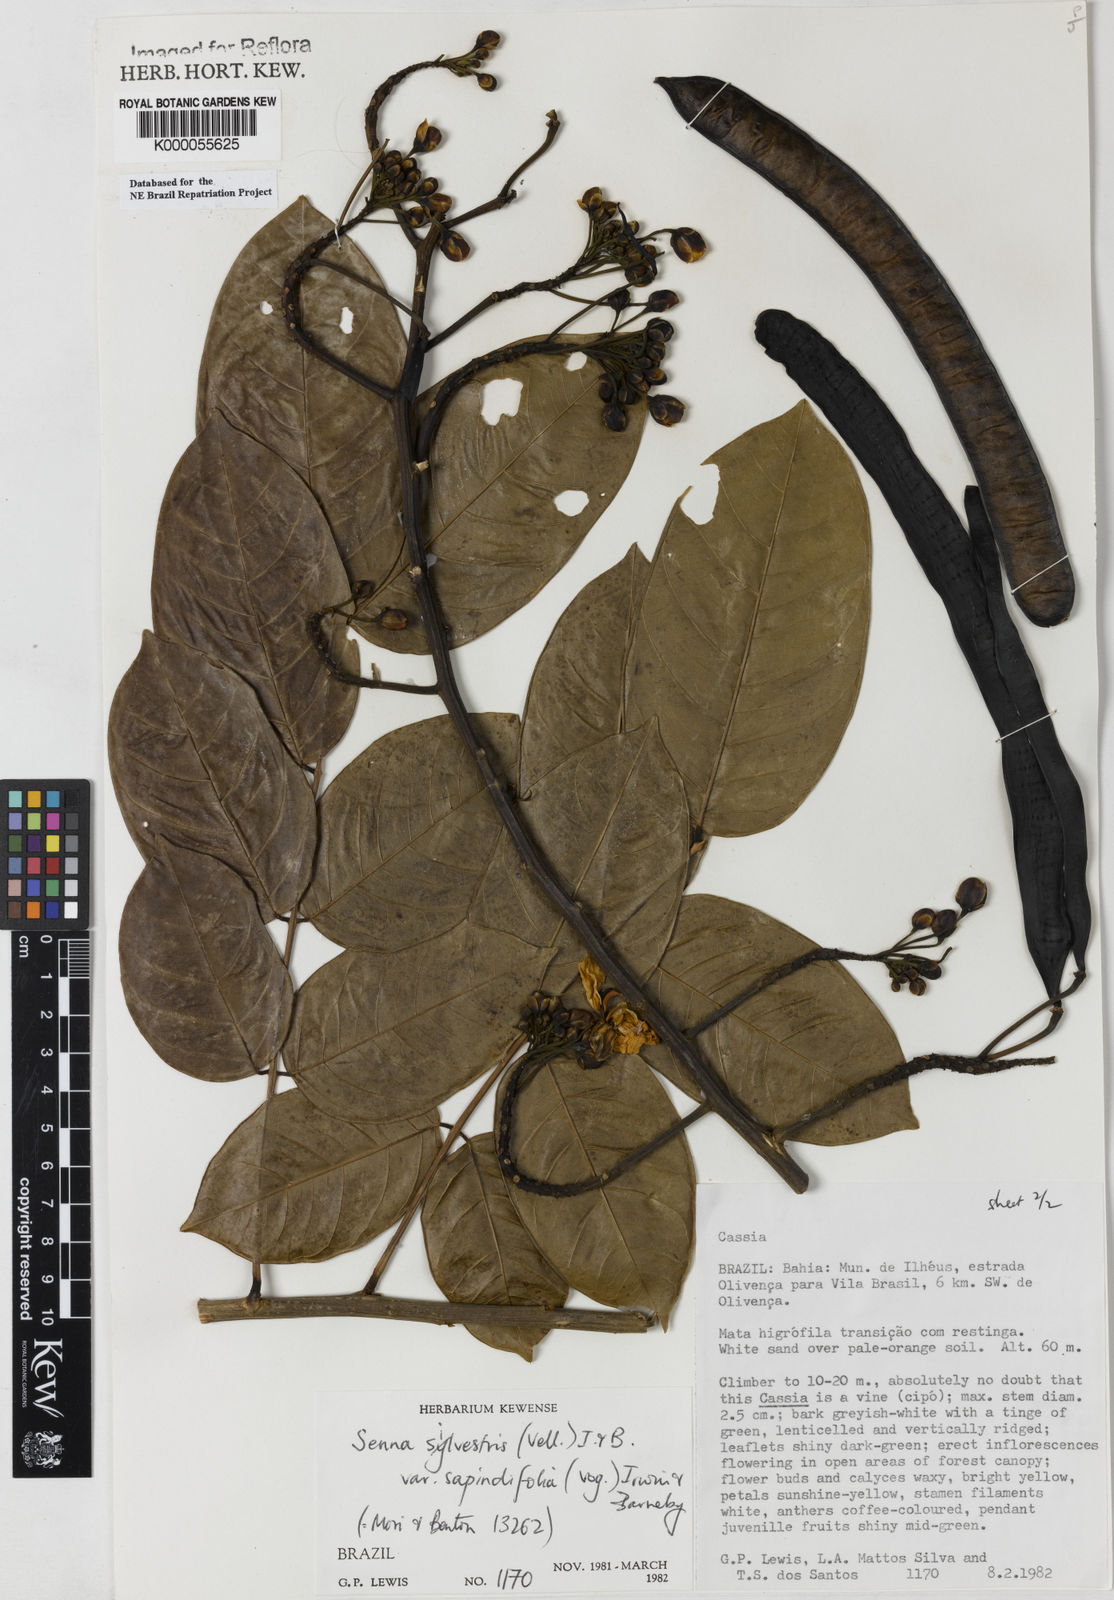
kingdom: Plantae
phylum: Tracheophyta
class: Magnoliopsida
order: Fabales
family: Fabaceae
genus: Senna
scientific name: Senna silvestris
